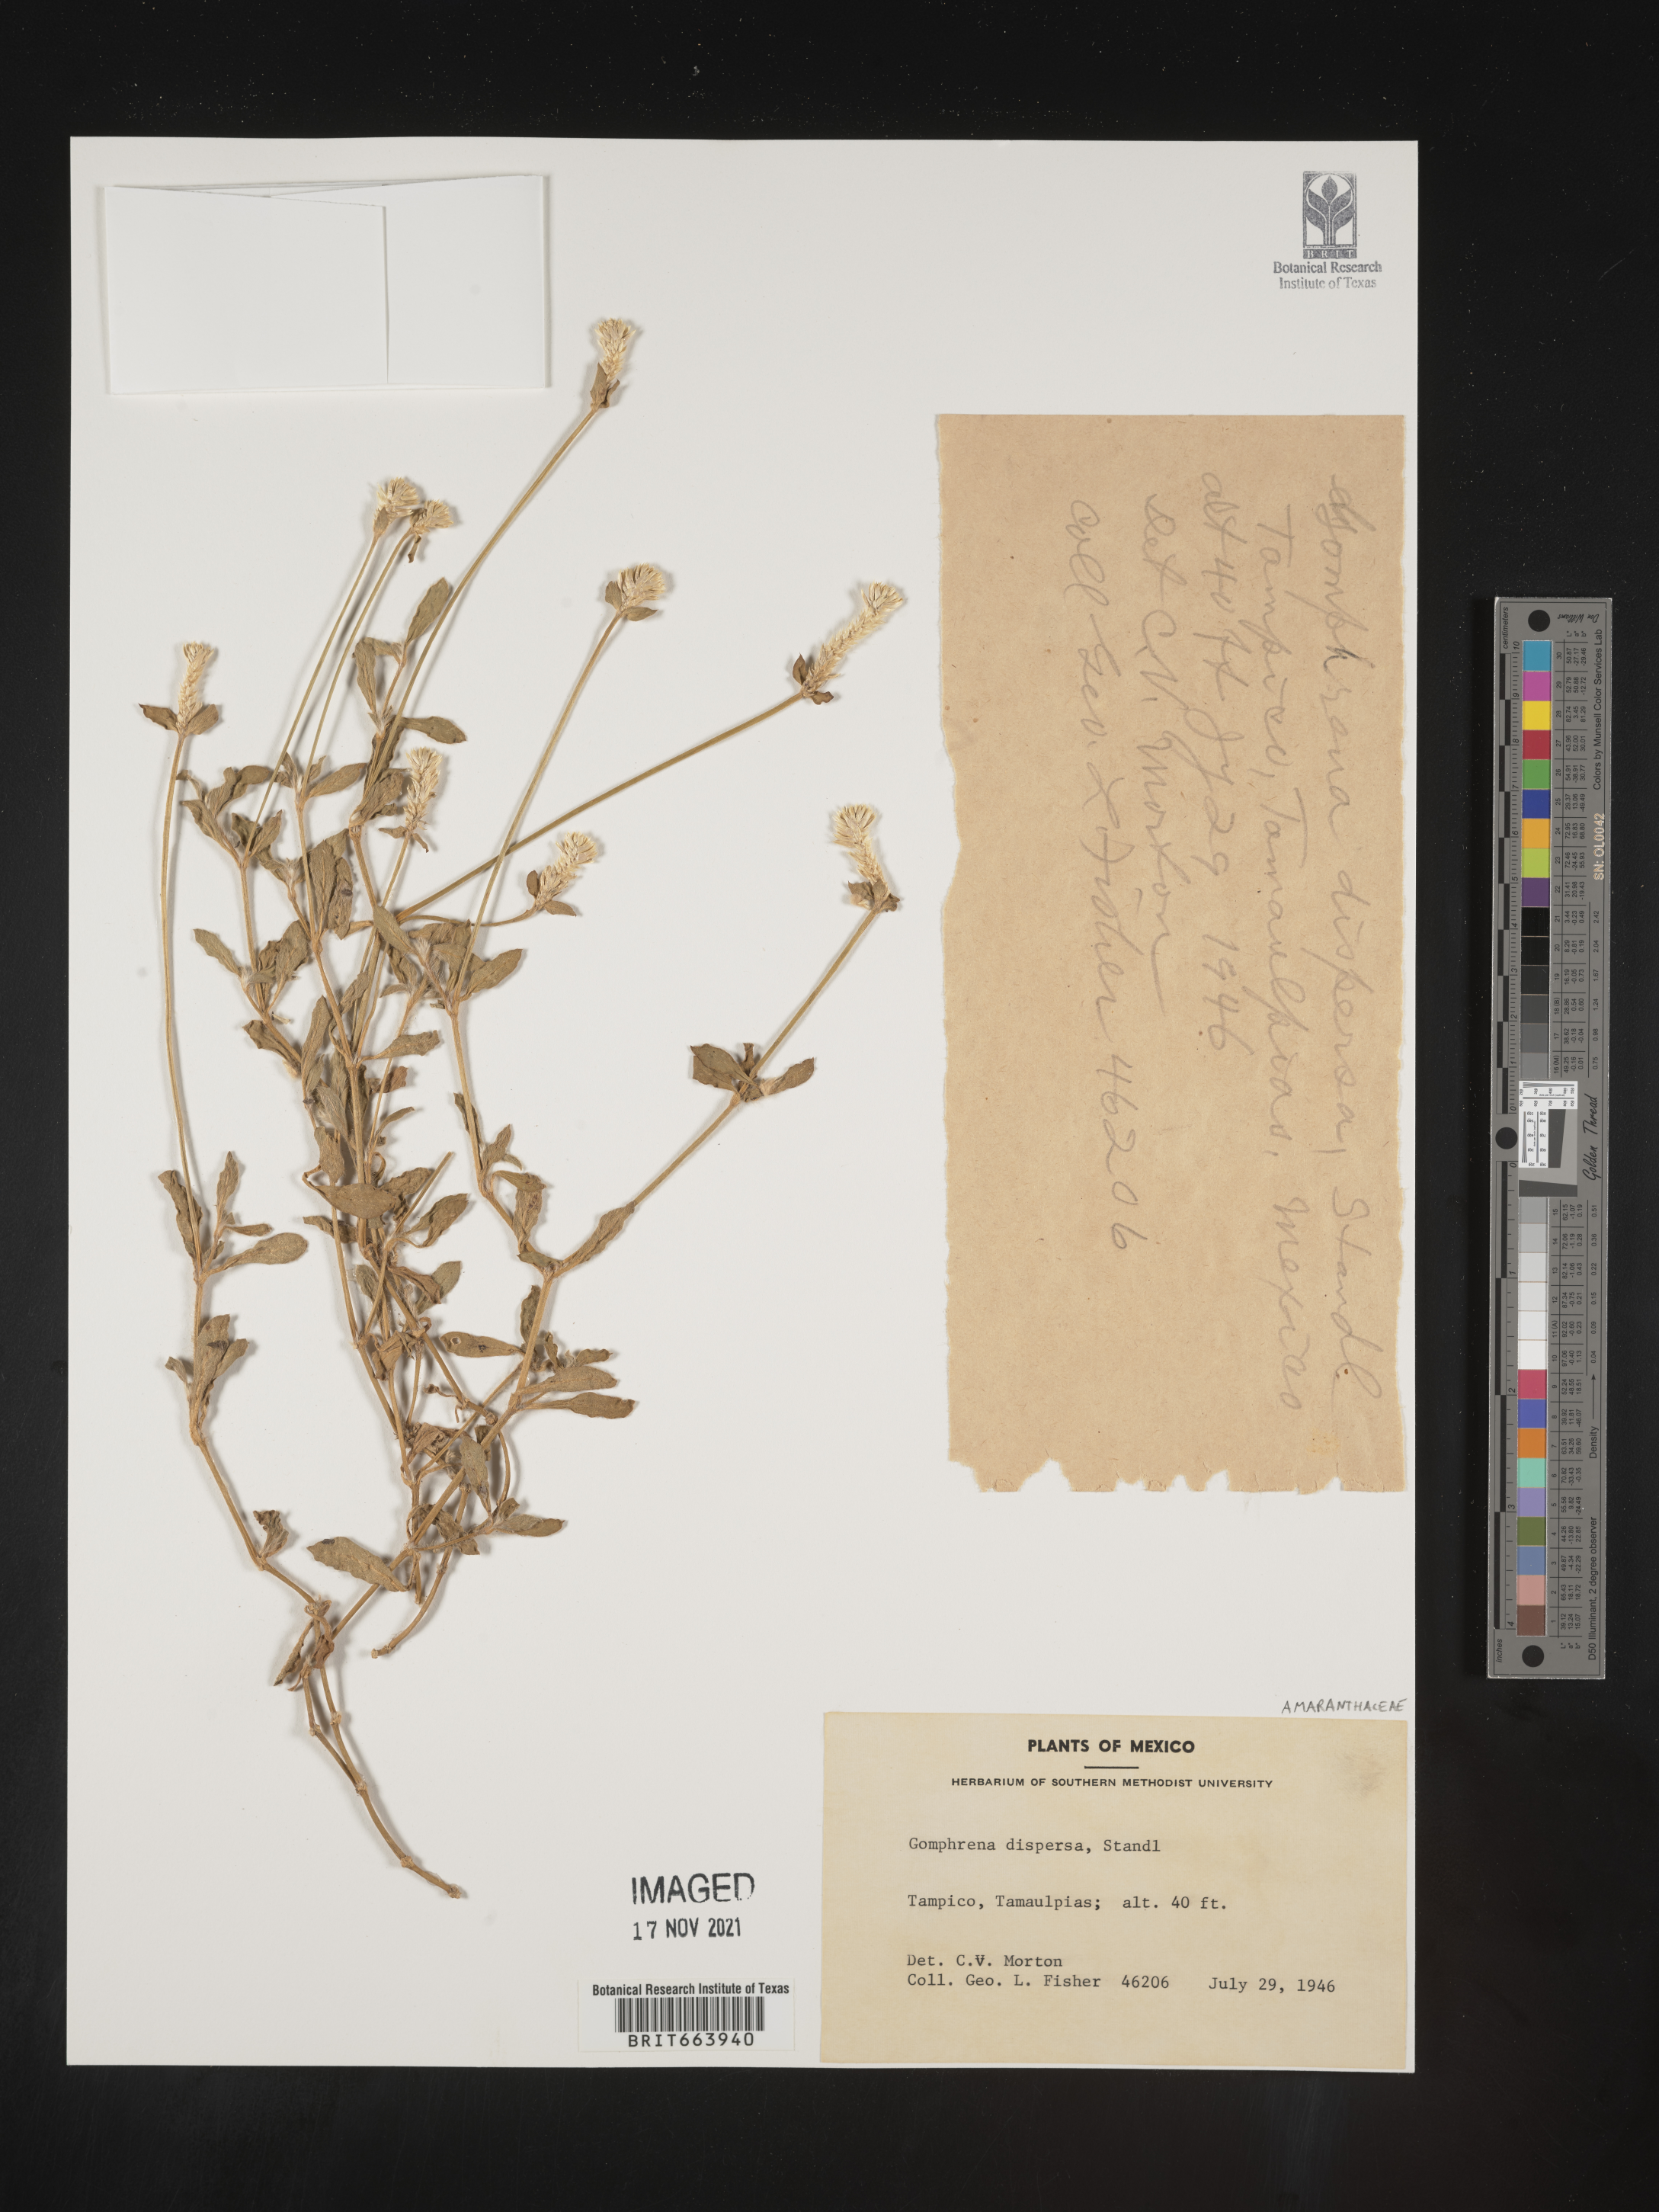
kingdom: Plantae
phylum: Tracheophyta
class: Magnoliopsida
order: Caryophyllales
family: Amaranthaceae
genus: Gomphrena
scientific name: Gomphrena
